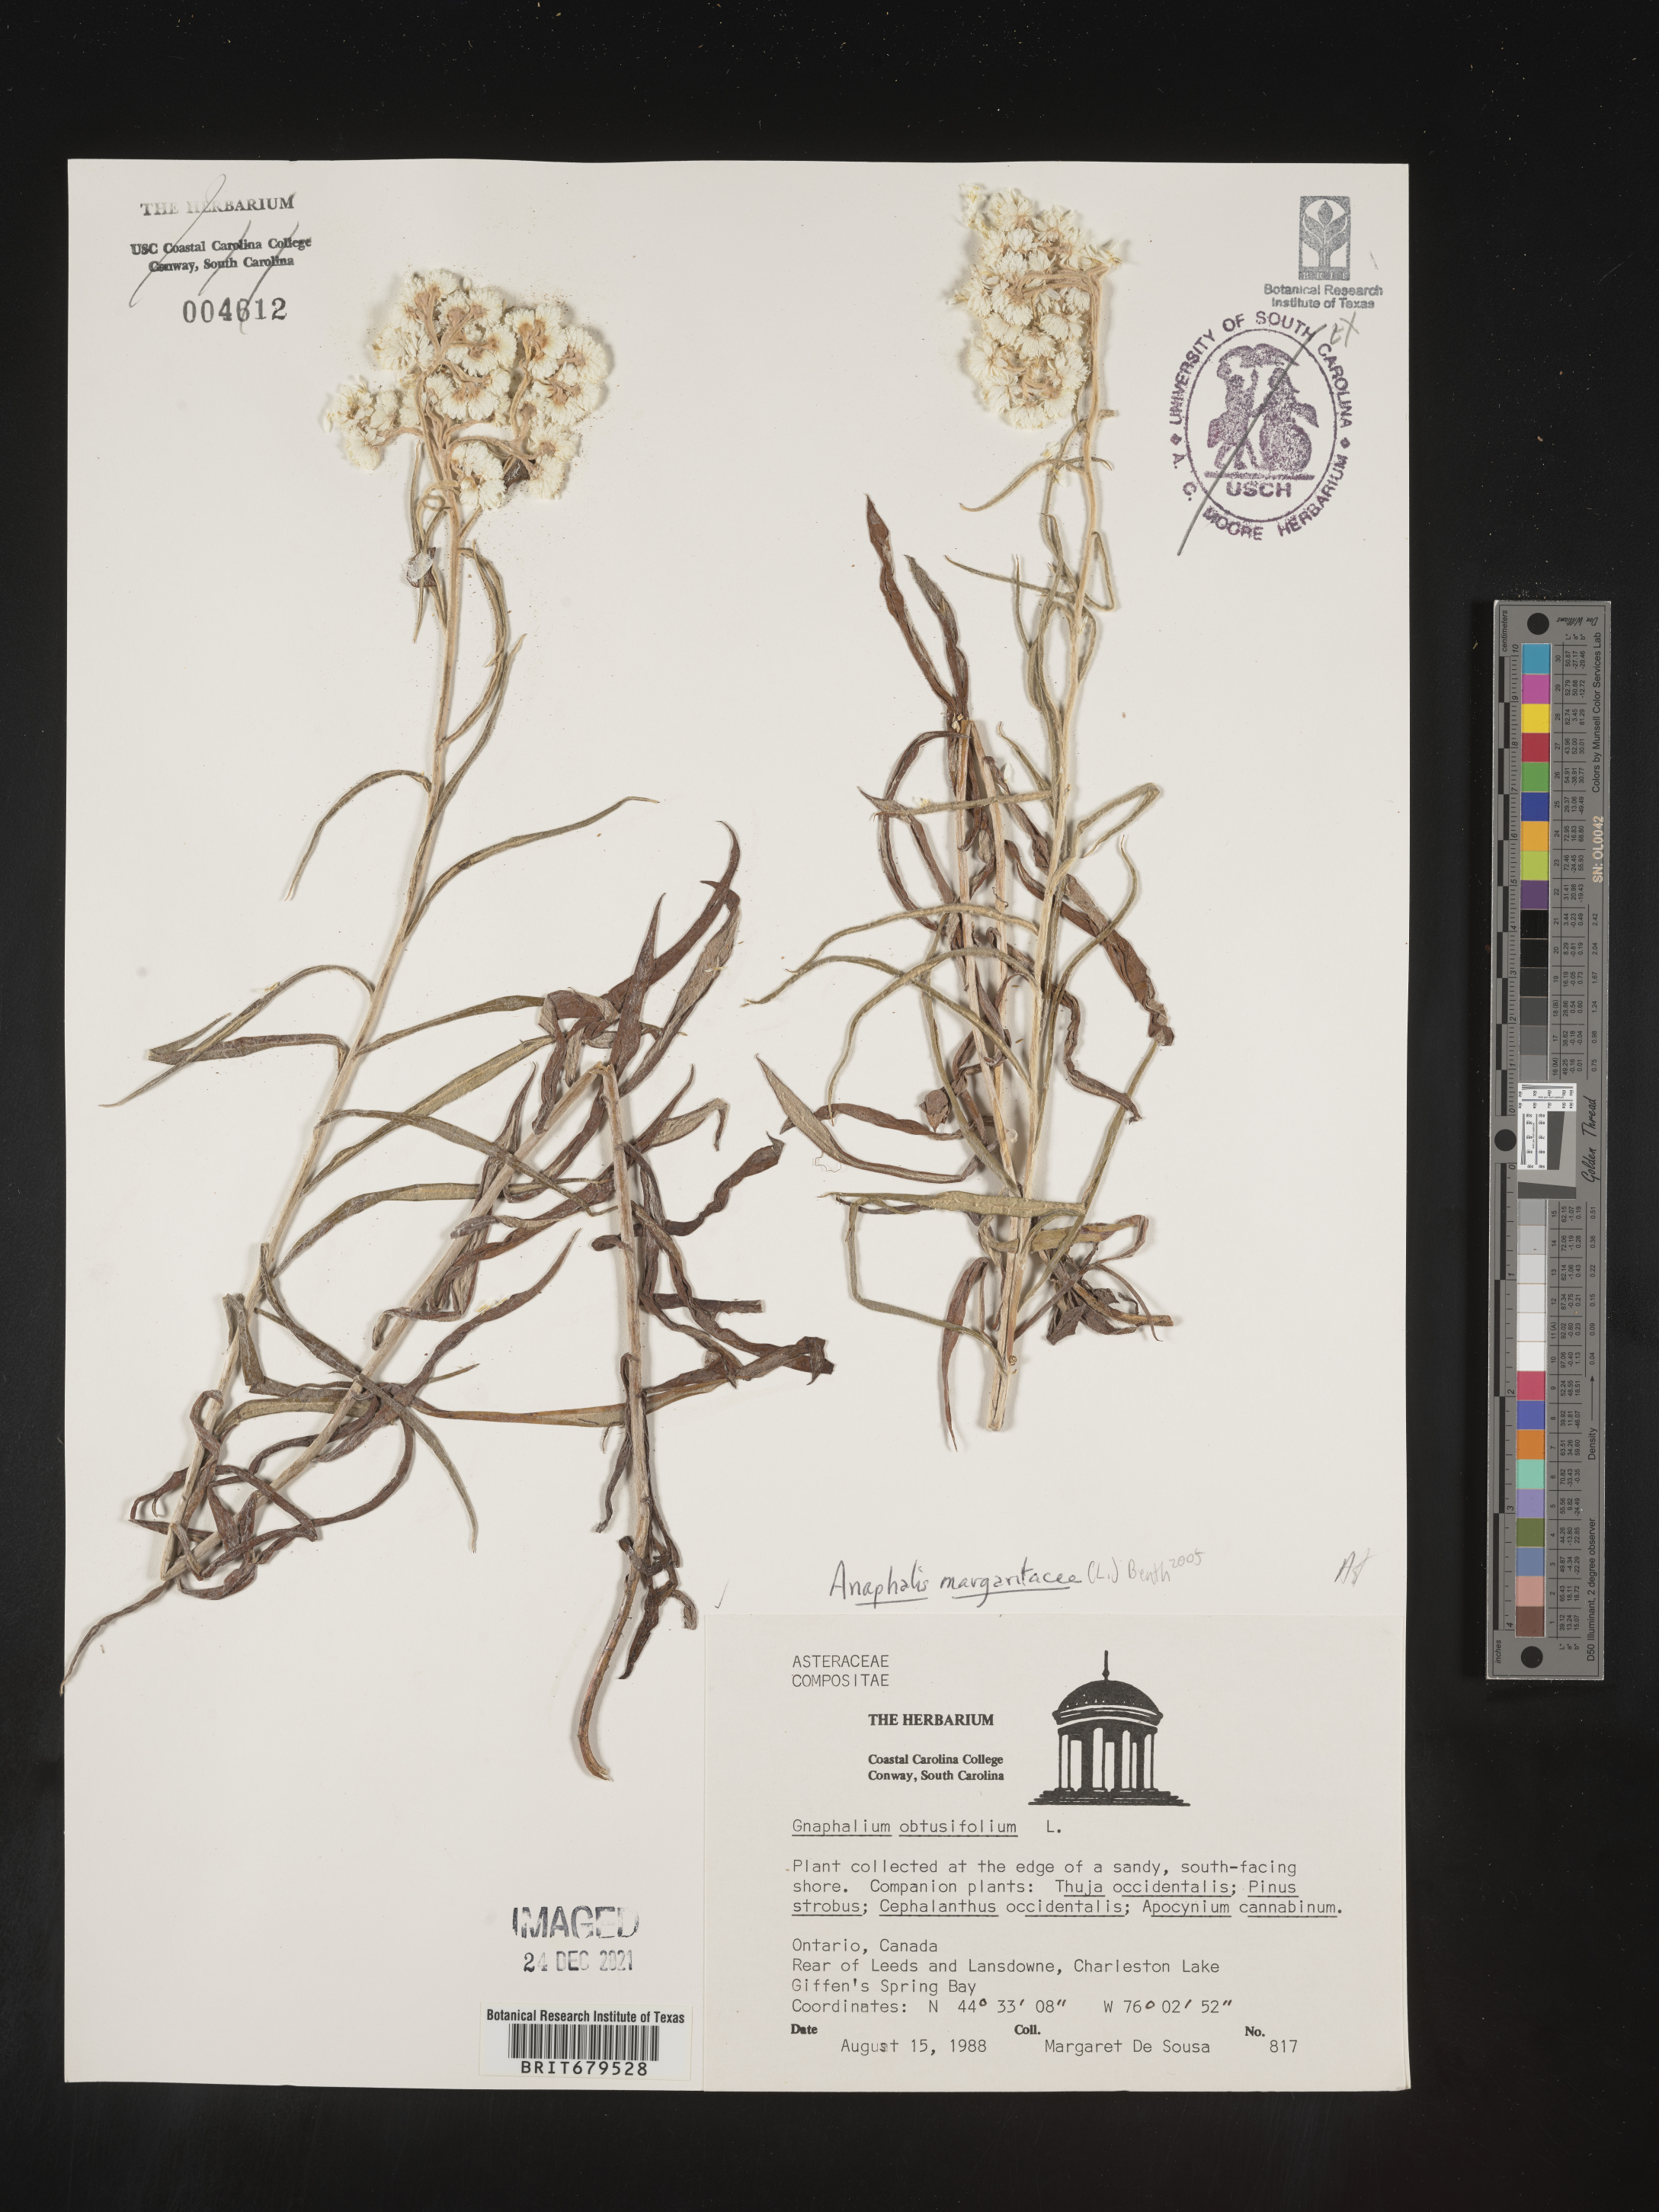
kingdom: Plantae
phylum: Tracheophyta
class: Magnoliopsida
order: Asterales
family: Asteraceae
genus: Anaphalis
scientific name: Anaphalis margaritacea
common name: Pearly everlasting
